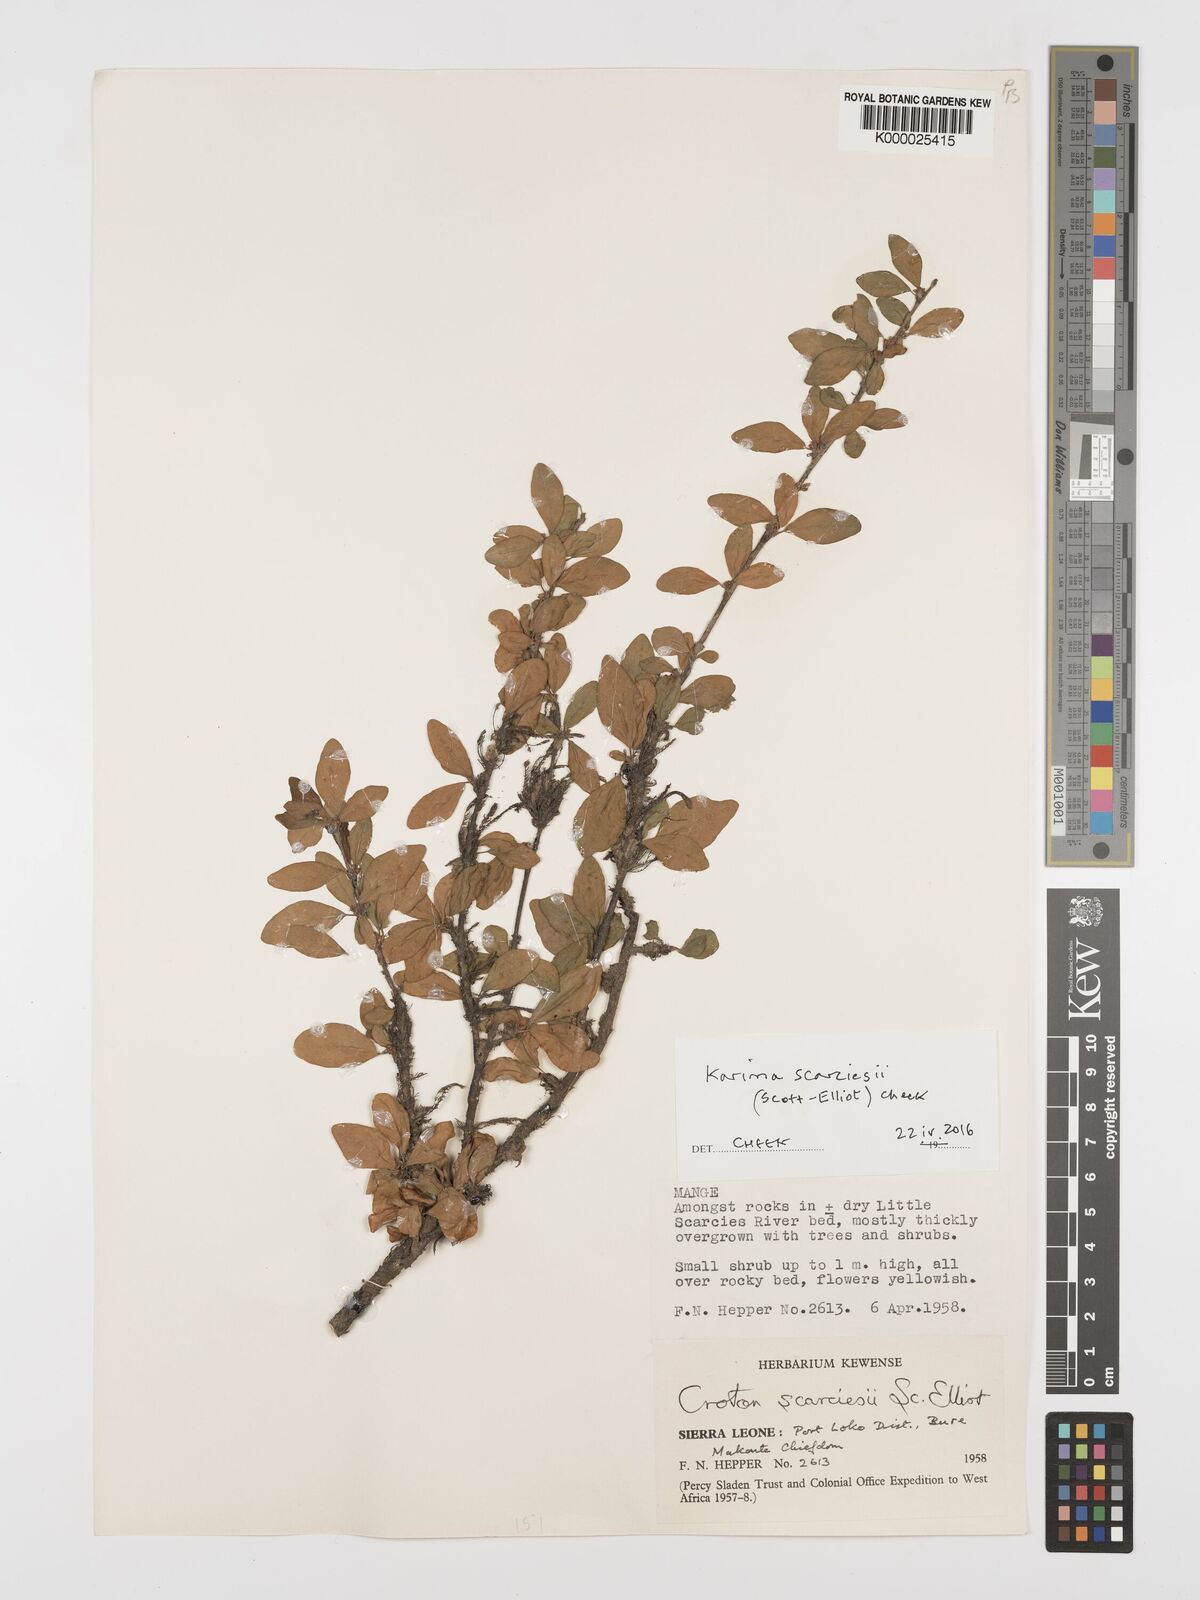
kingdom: Plantae
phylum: Tracheophyta
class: Magnoliopsida
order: Gentianales
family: Rubiaceae
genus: Parapentas
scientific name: Parapentas setigera
